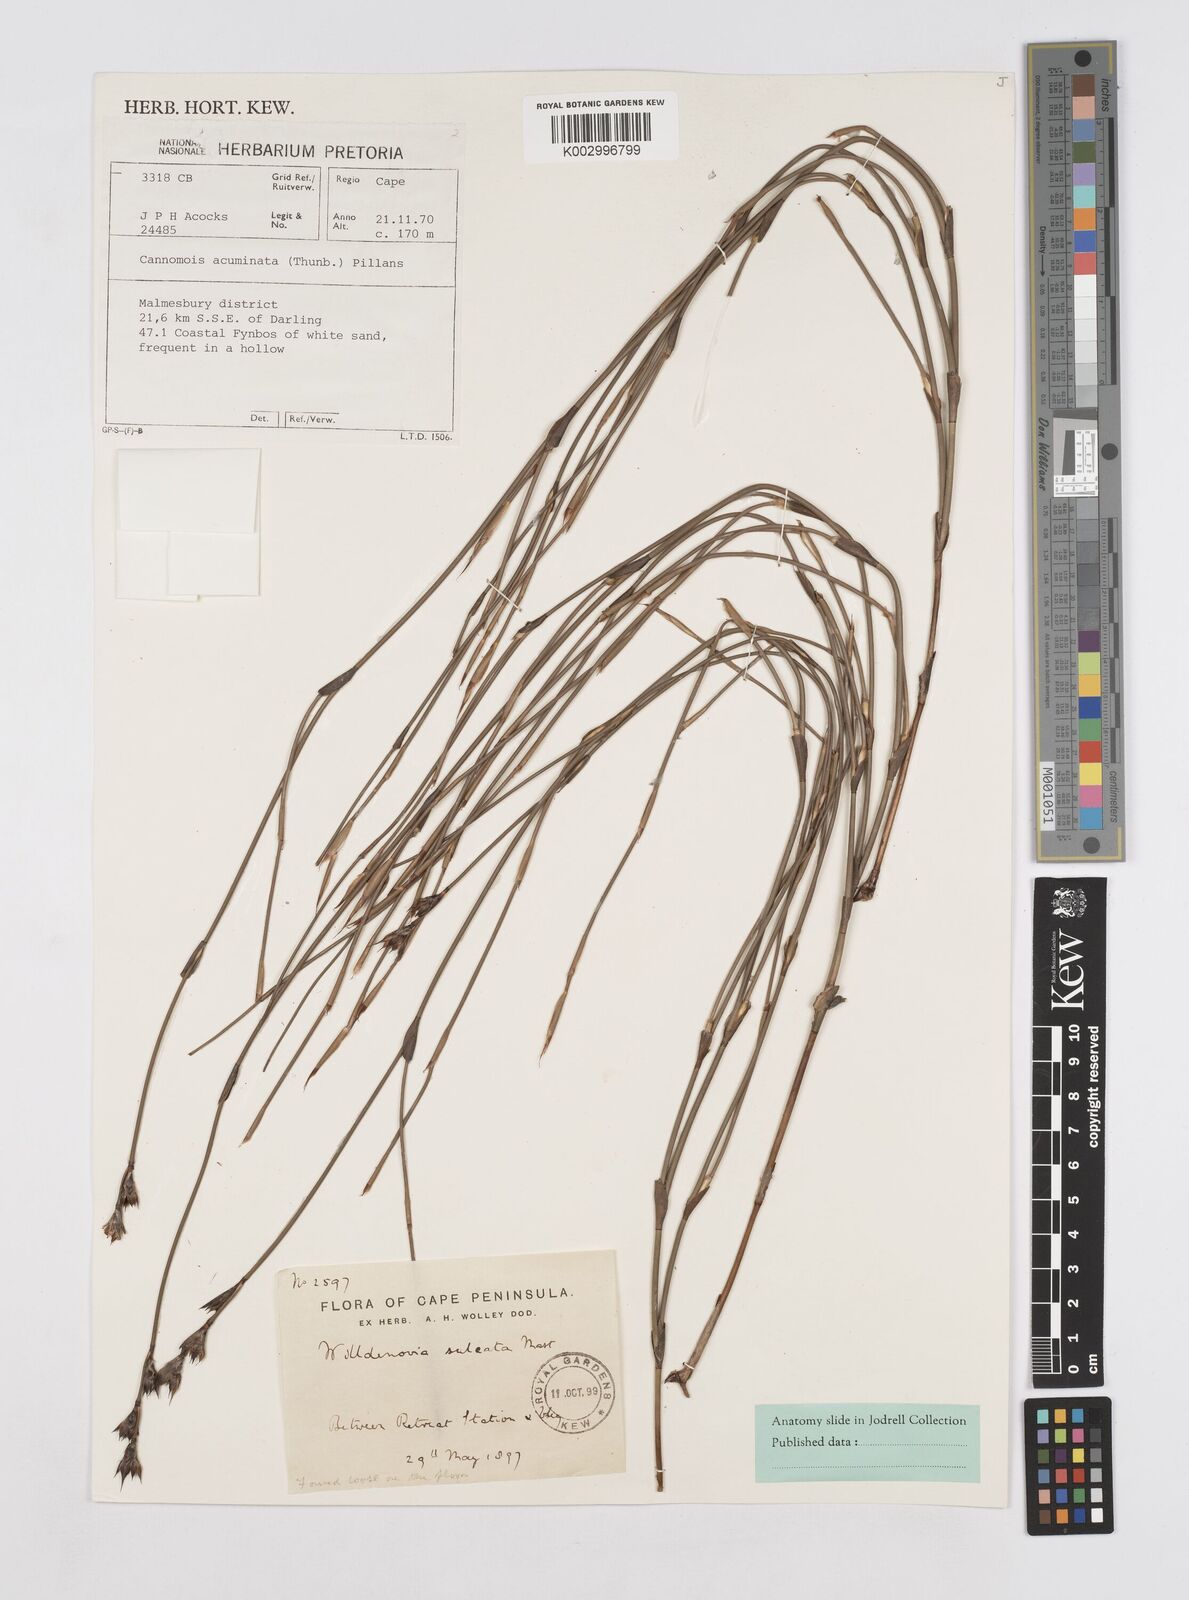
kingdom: Plantae
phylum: Tracheophyta
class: Liliopsida
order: Poales
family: Restionaceae
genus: Willdenowia
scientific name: Willdenowia sulcata
